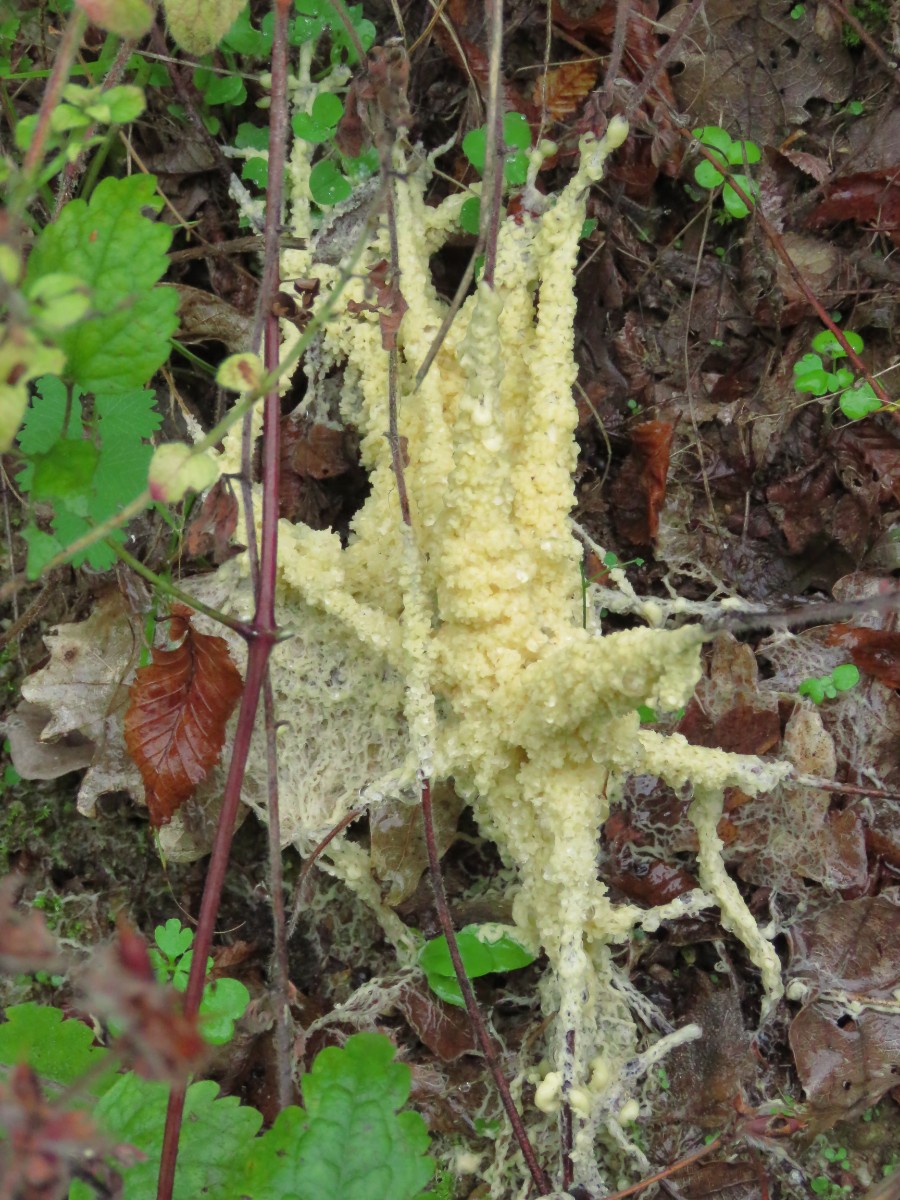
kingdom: Protozoa
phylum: Mycetozoa
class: Myxomycetes
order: Physarales
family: Physaraceae
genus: Didymium
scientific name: Didymium
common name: urteskum
